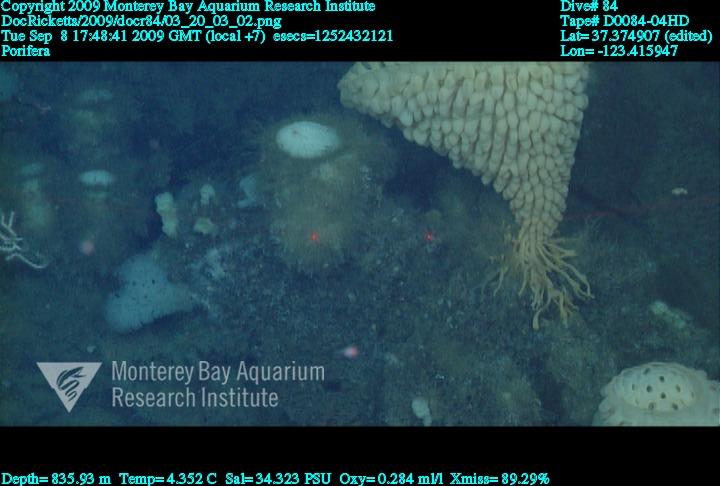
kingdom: Animalia
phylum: Porifera
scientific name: Porifera
